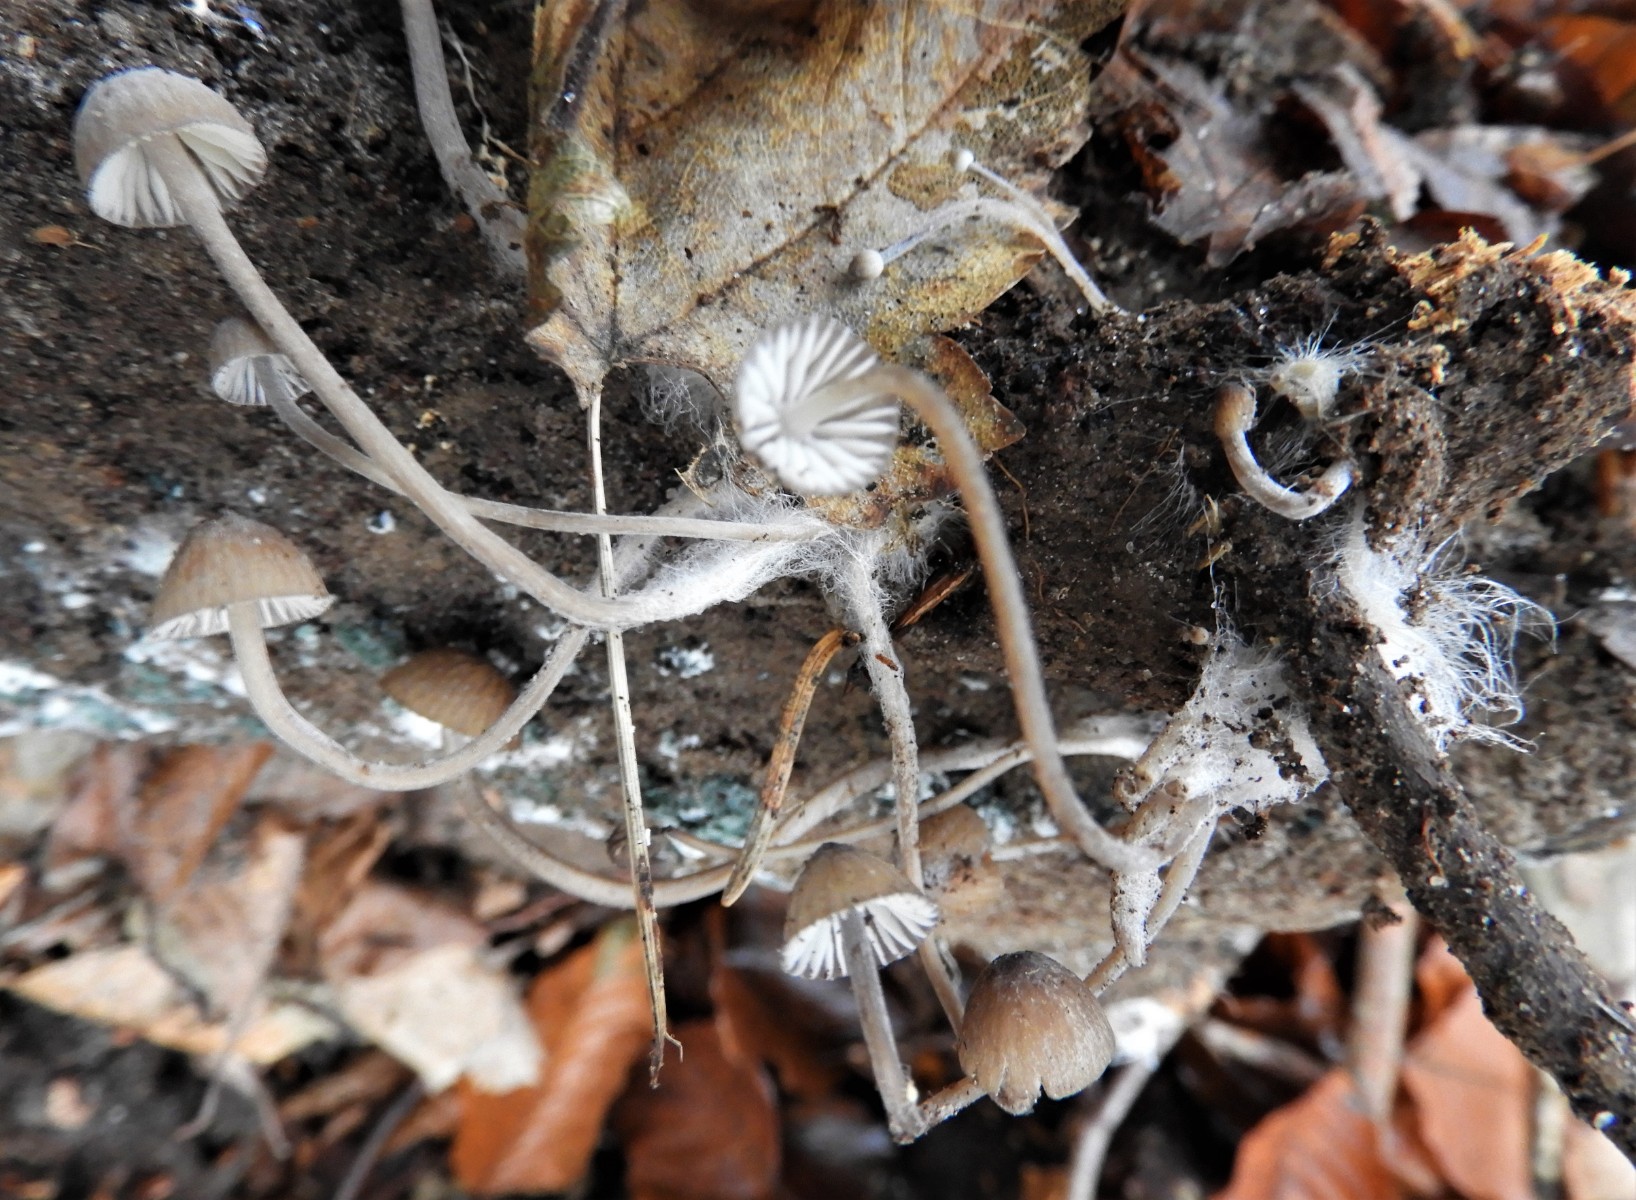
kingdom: Fungi
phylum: Basidiomycota
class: Agaricomycetes
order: Agaricales
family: Mycenaceae
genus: Mycena
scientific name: Mycena galopus
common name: hvidmælket huesvamp
